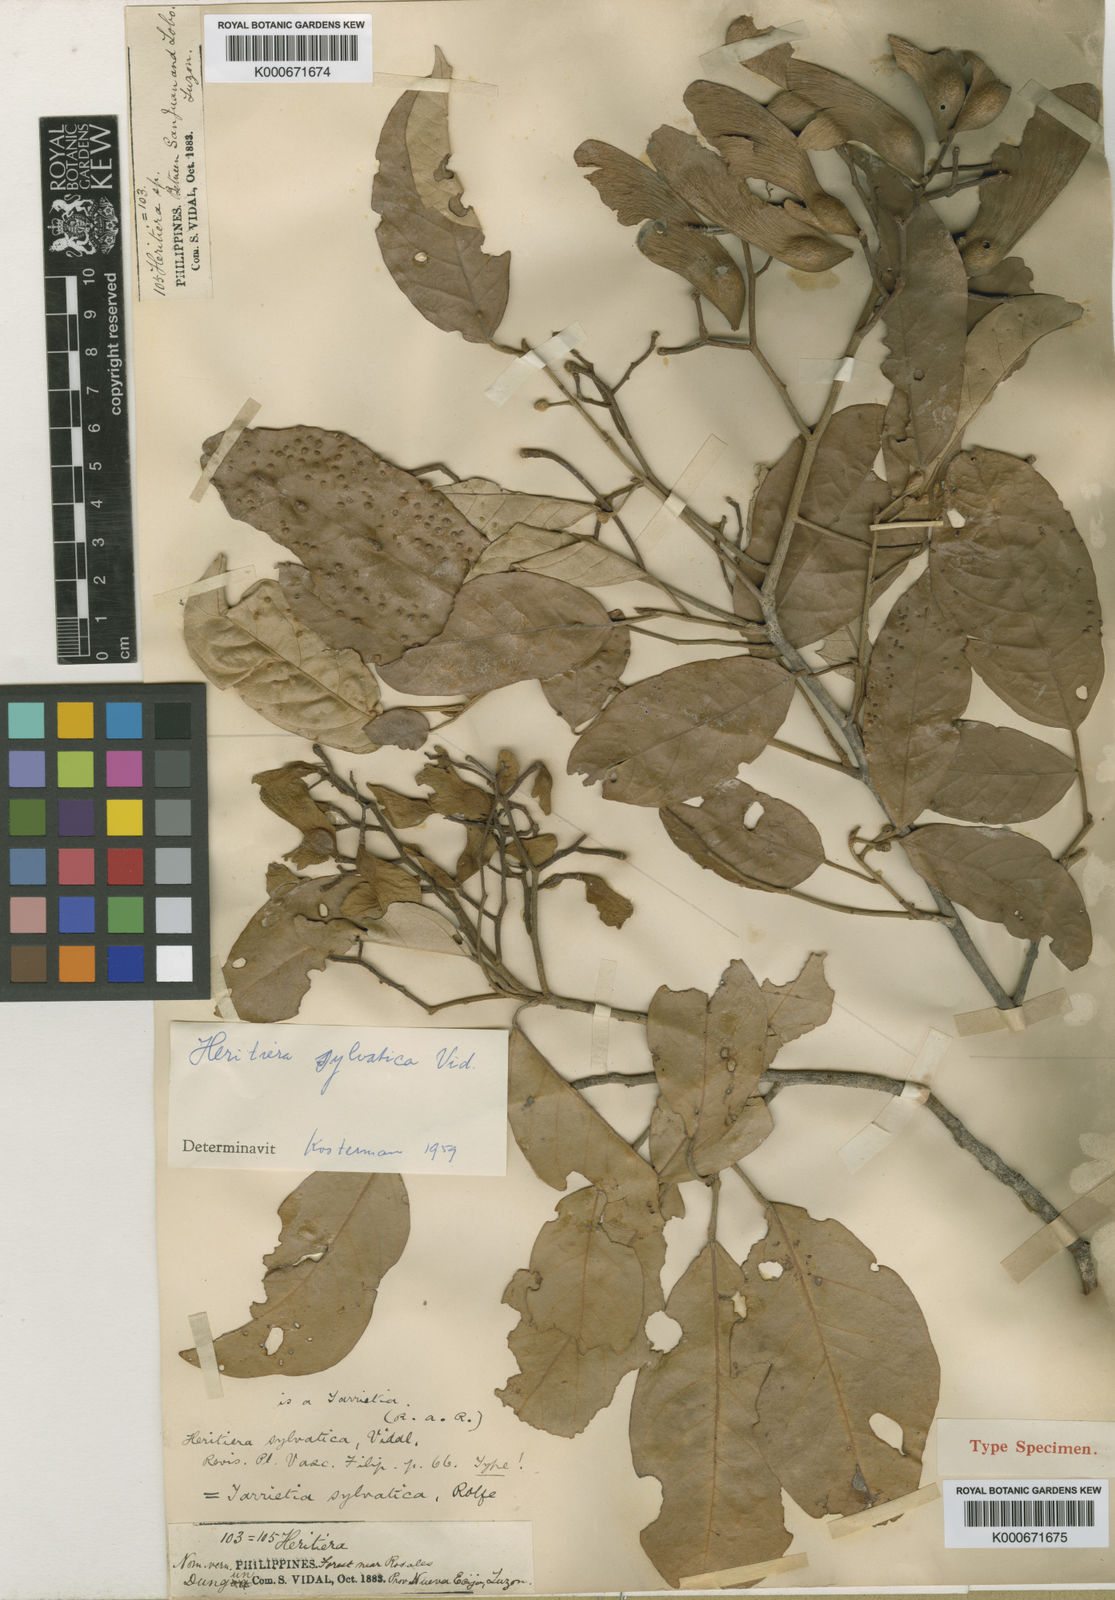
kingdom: Plantae
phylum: Tracheophyta
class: Magnoliopsida
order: Malvales
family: Malvaceae
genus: Heritiera
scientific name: Heritiera sylvatica
